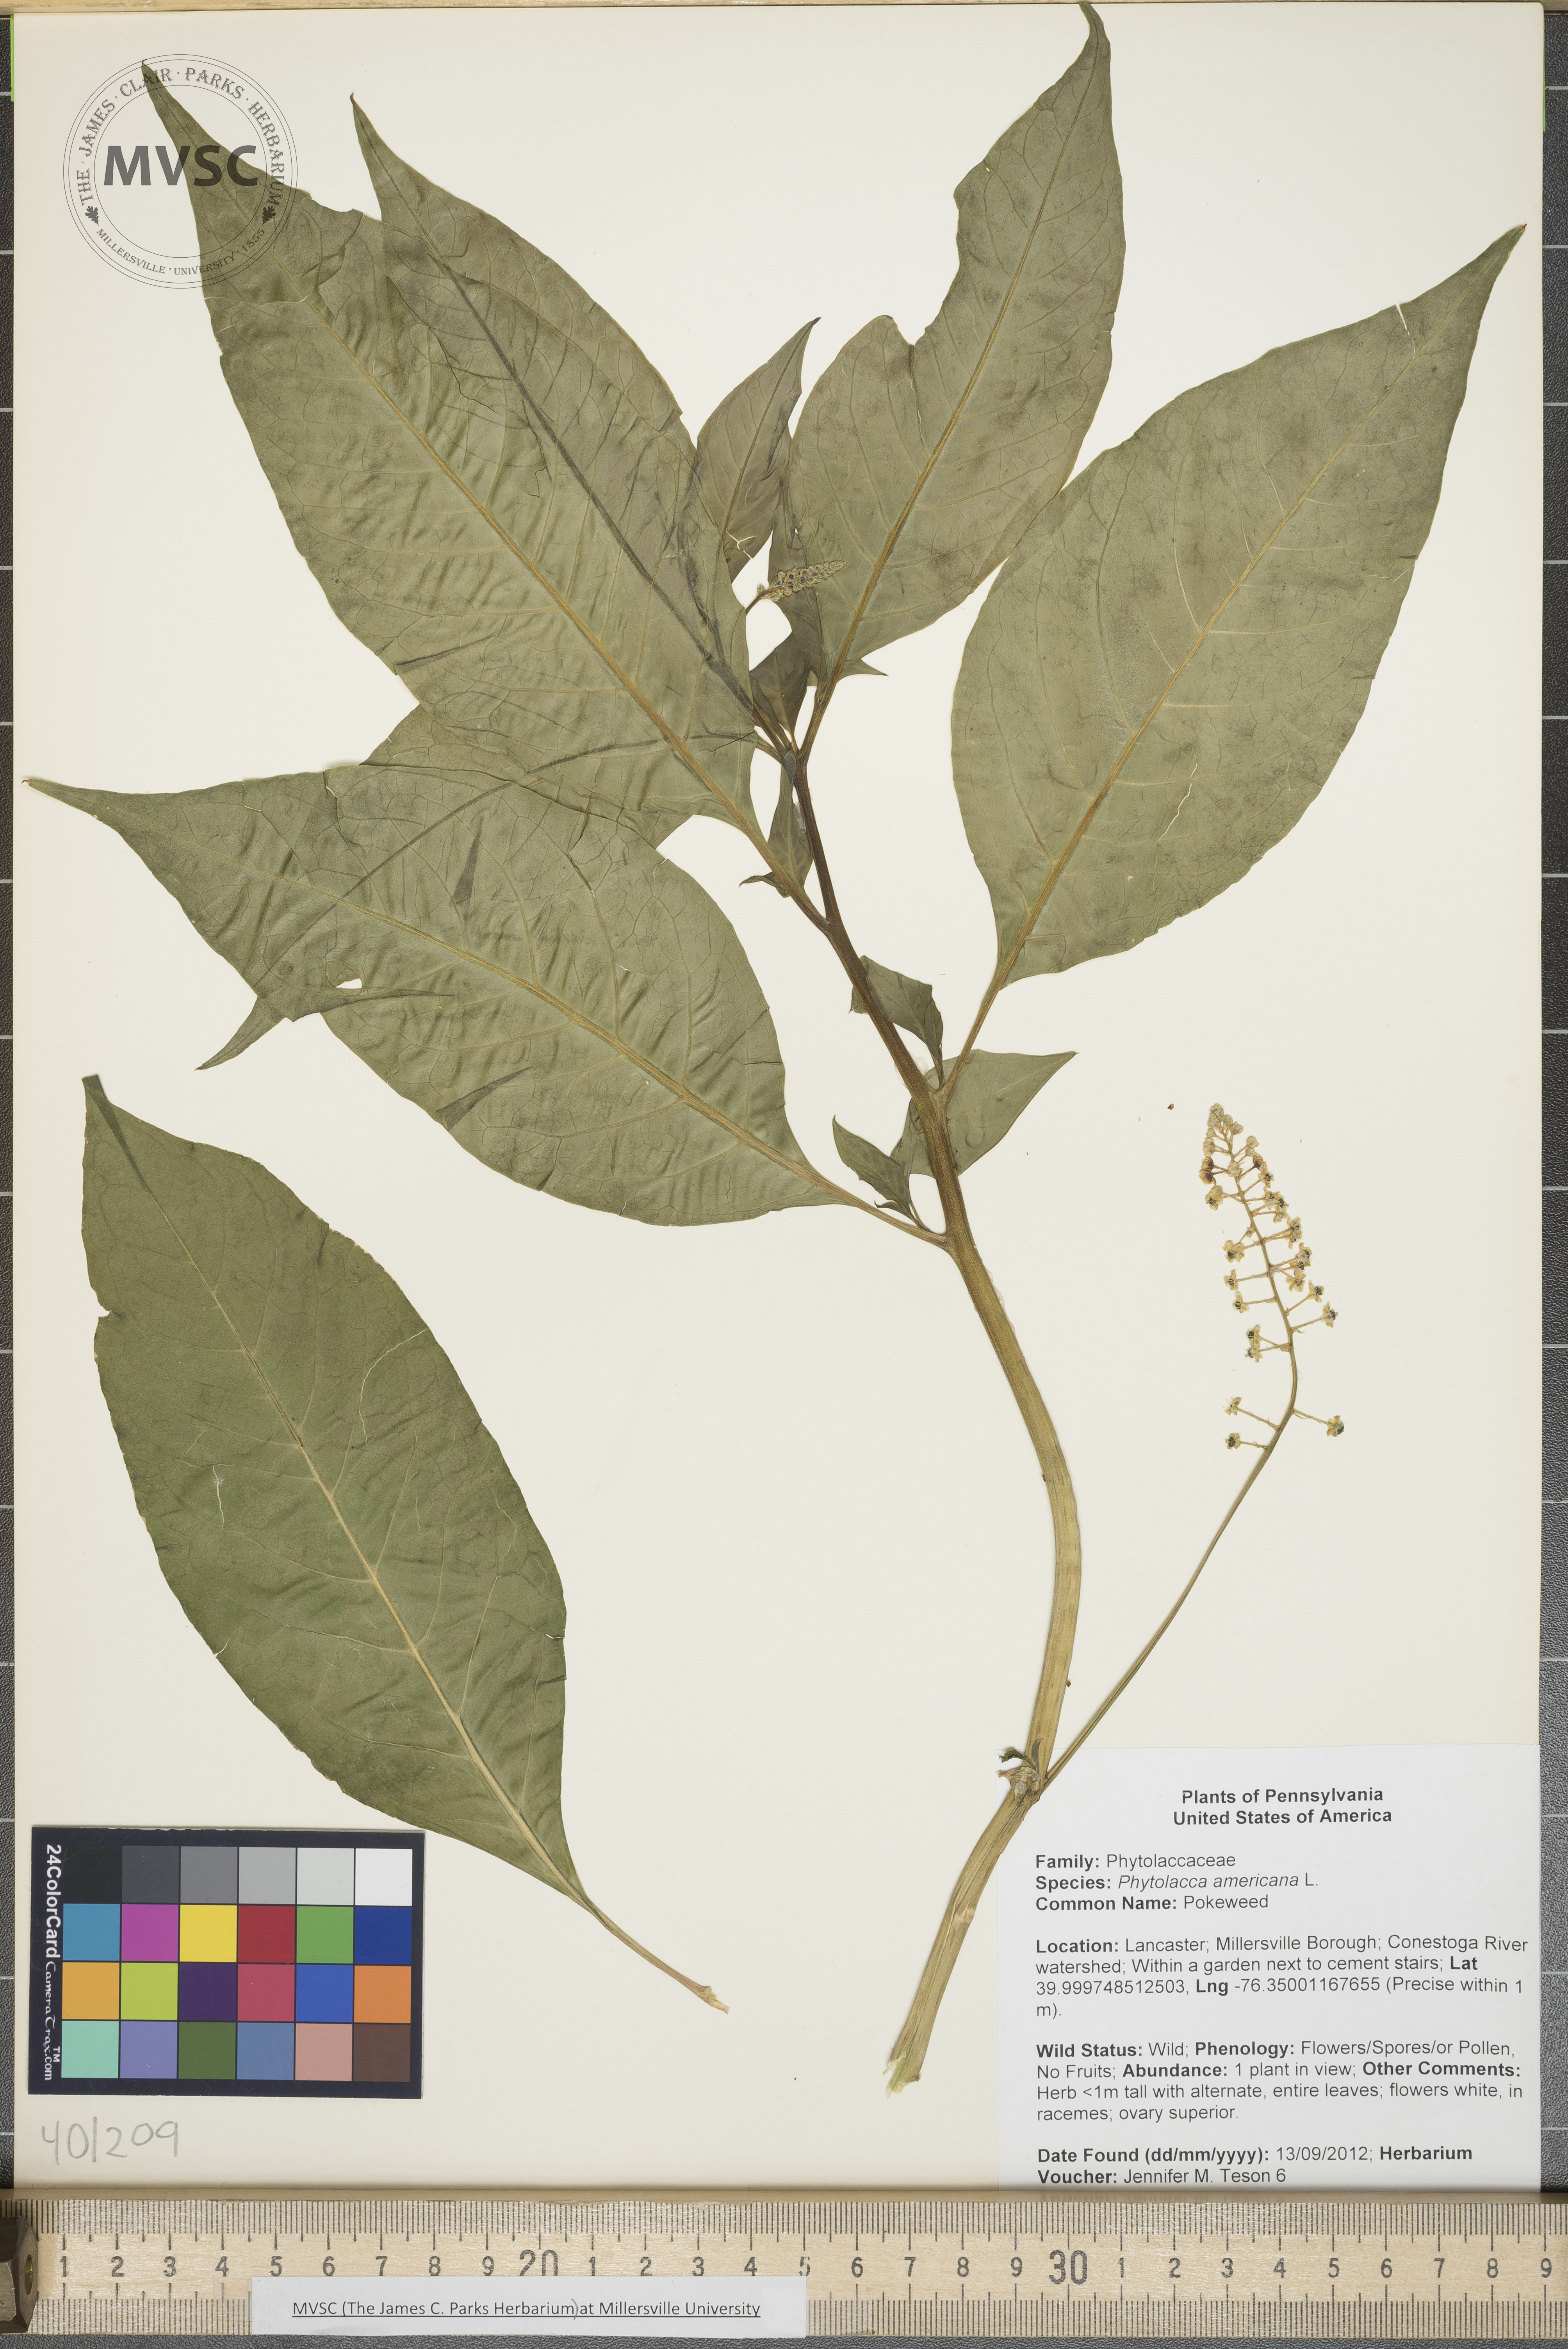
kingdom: Plantae
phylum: Tracheophyta
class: Magnoliopsida
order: Caryophyllales
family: Phytolaccaceae
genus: Phytolacca
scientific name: Phytolacca americana
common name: Pokeweed
